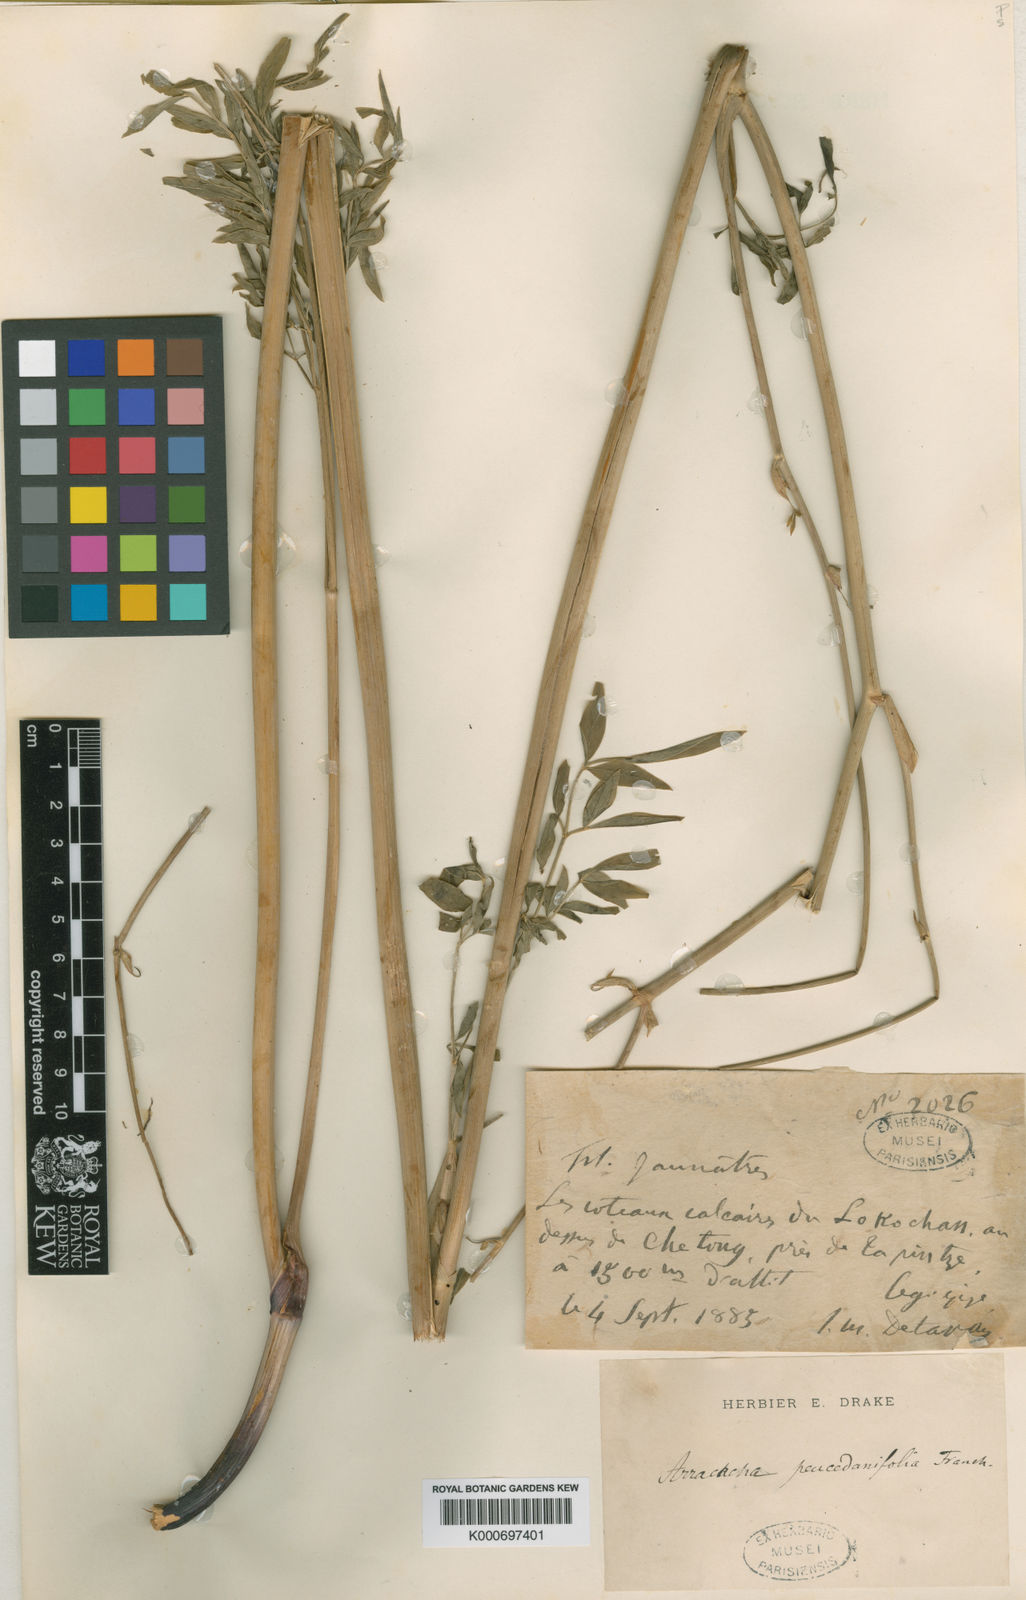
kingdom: Plantae
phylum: Tracheophyta
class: Magnoliopsida
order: Apiales
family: Apiaceae
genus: Cyclorhiza
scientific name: Cyclorhiza peucedanifolia
